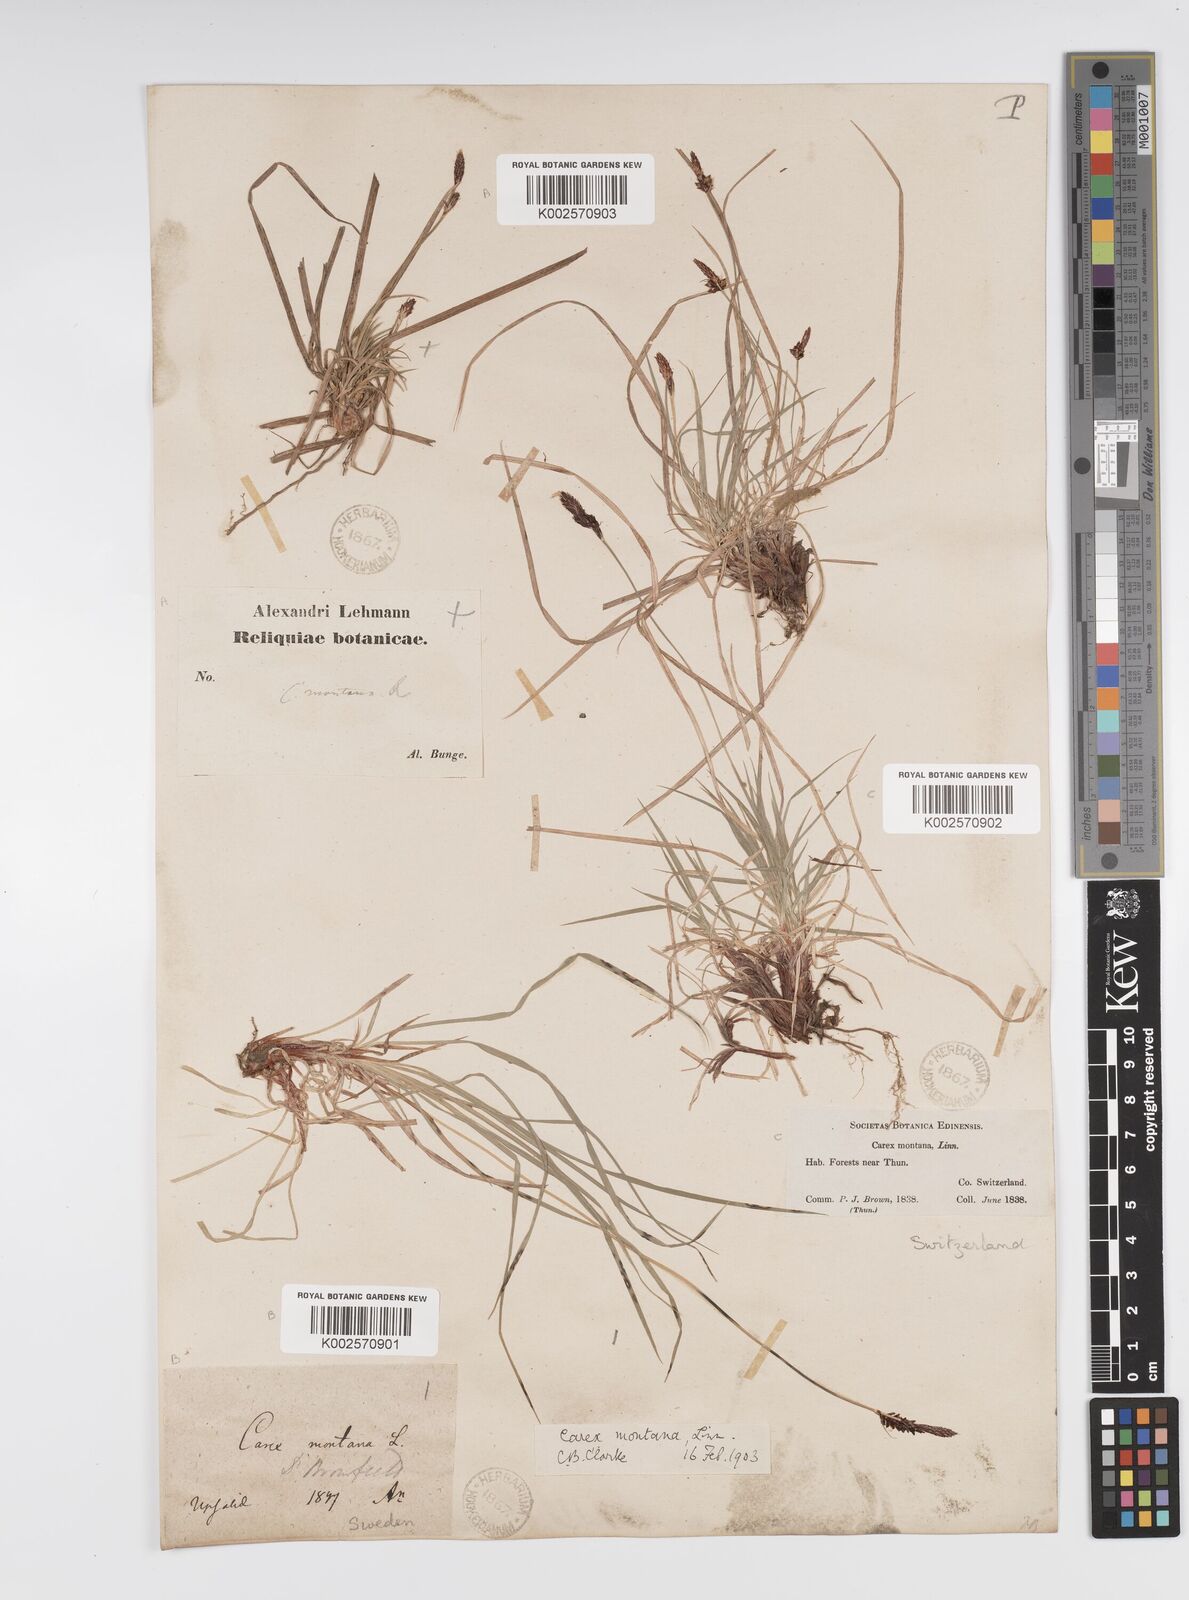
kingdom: Plantae
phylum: Tracheophyta
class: Liliopsida
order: Poales
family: Cyperaceae
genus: Carex
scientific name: Carex montana
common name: Soft-leaved sedge
